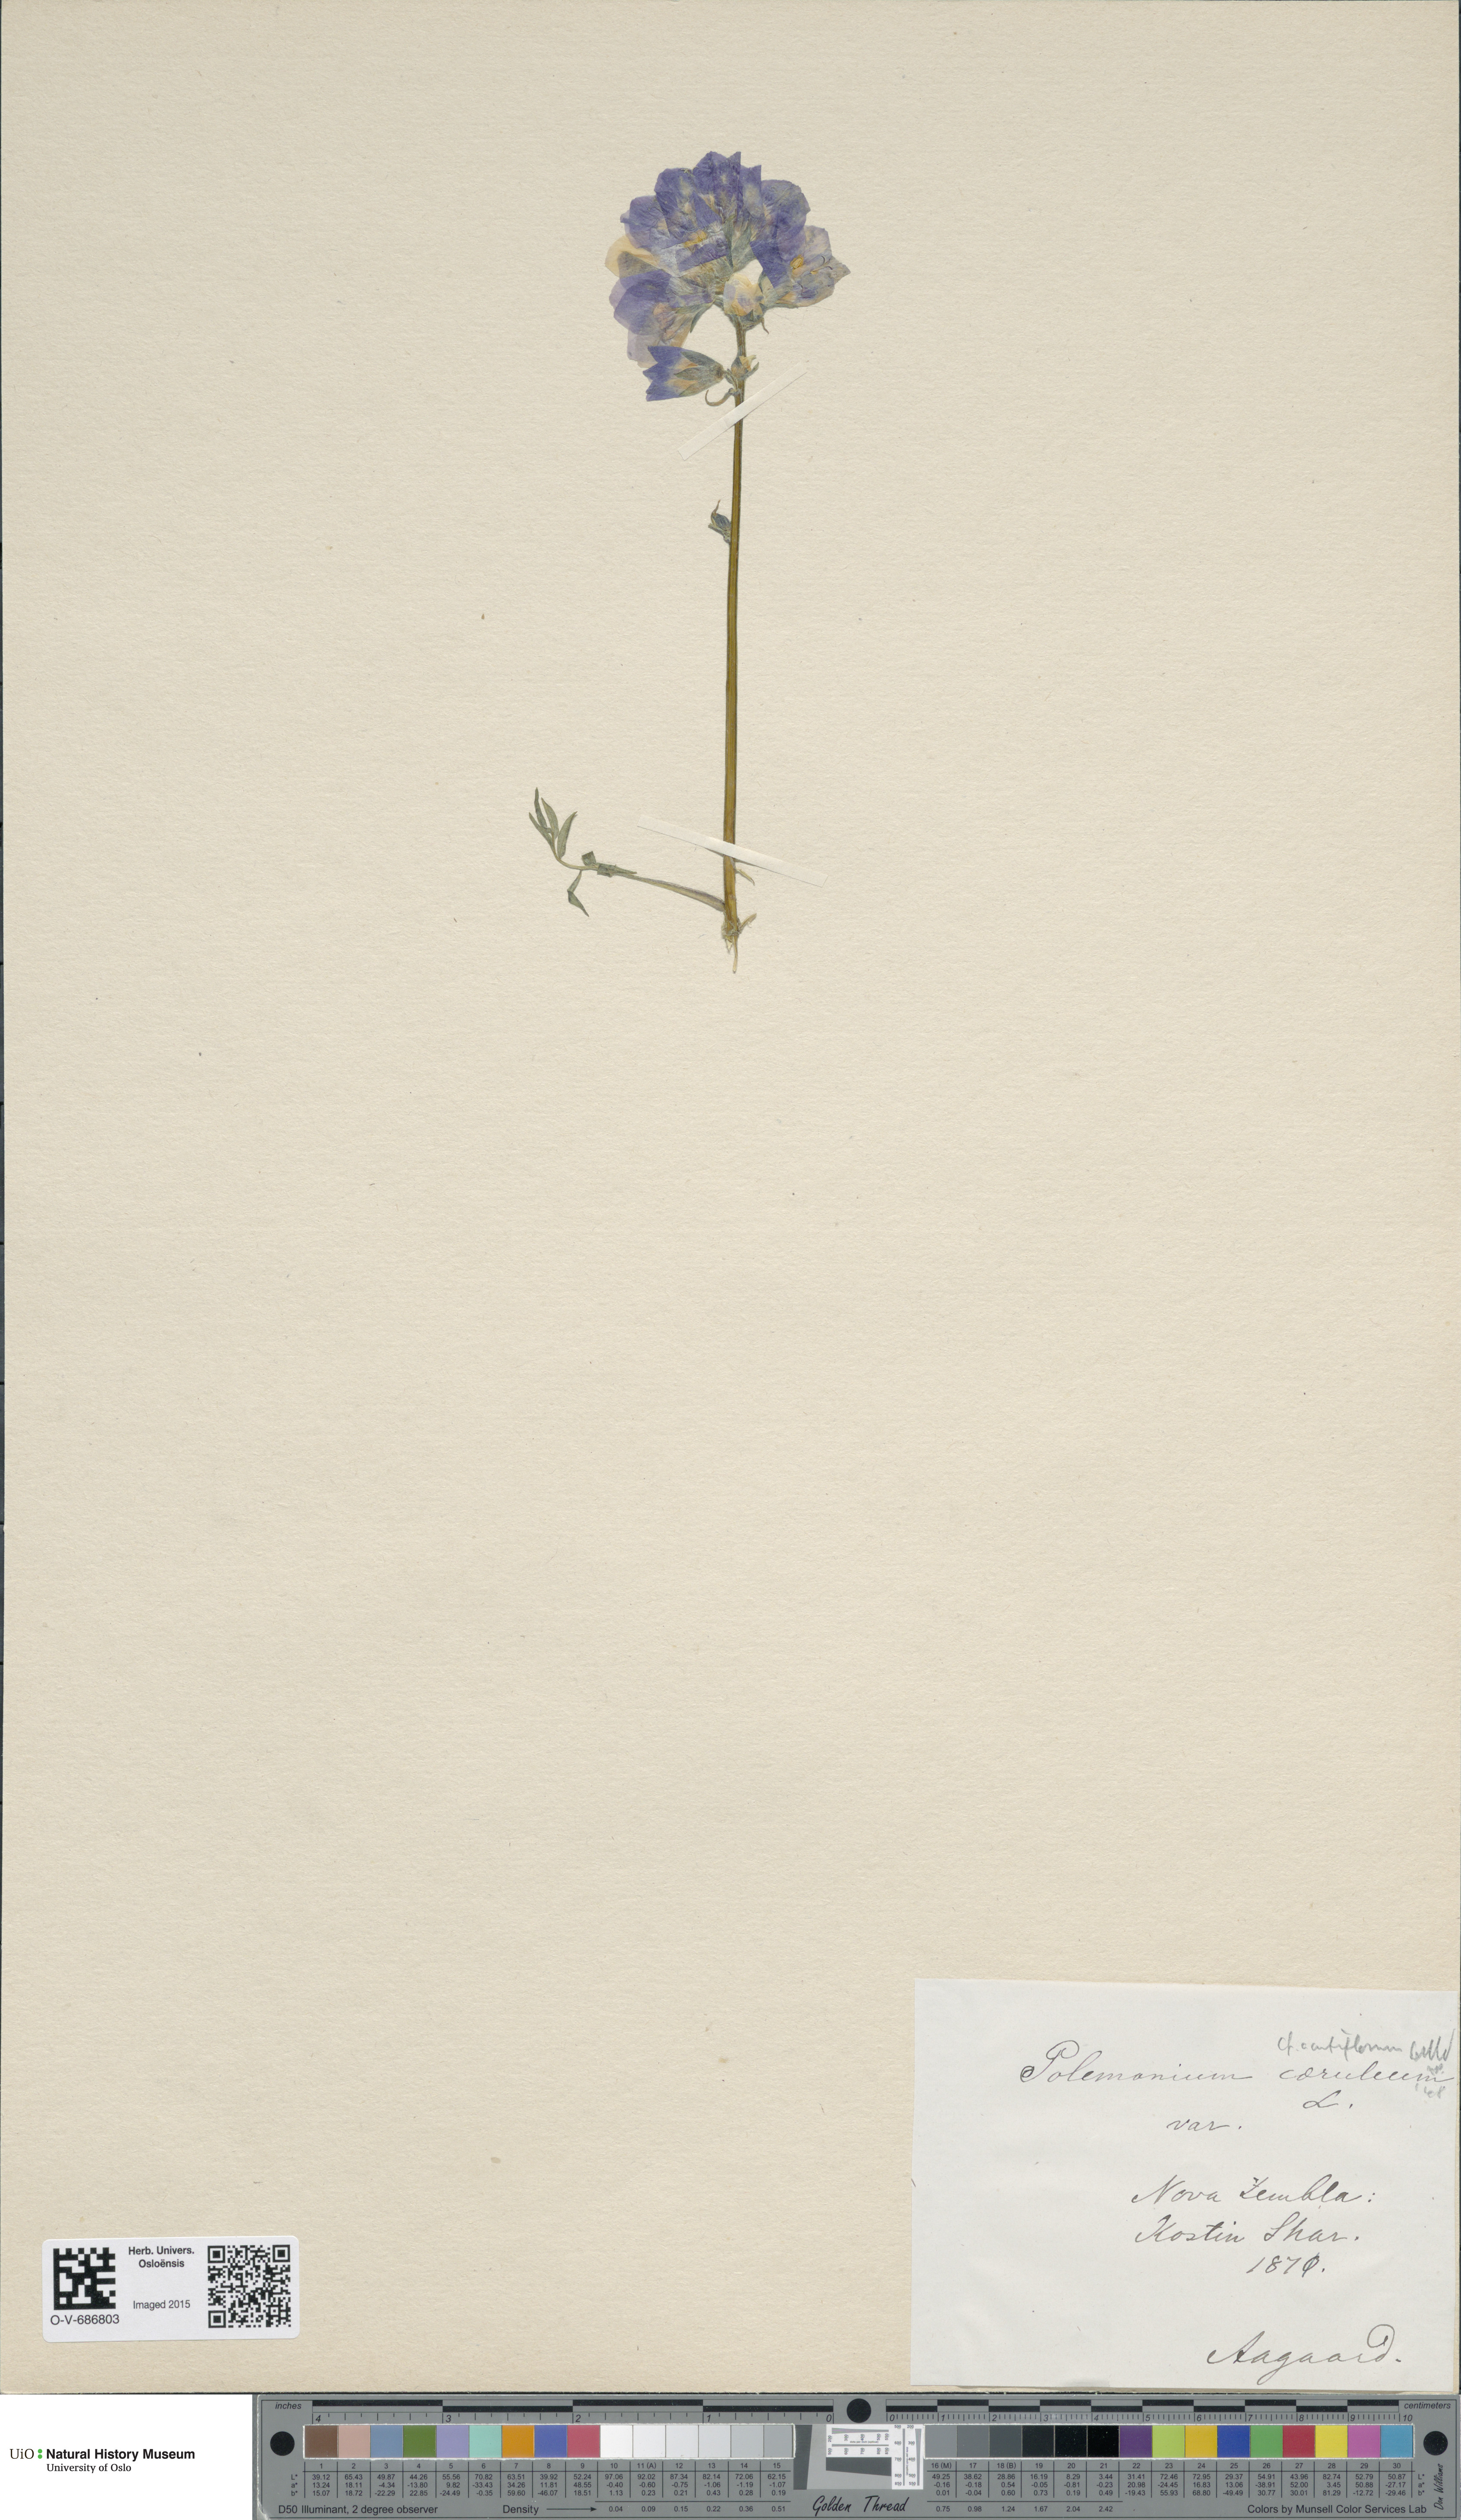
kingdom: Plantae
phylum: Tracheophyta
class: Magnoliopsida
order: Ericales
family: Polemoniaceae
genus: Polemonium
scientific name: Polemonium villosum
